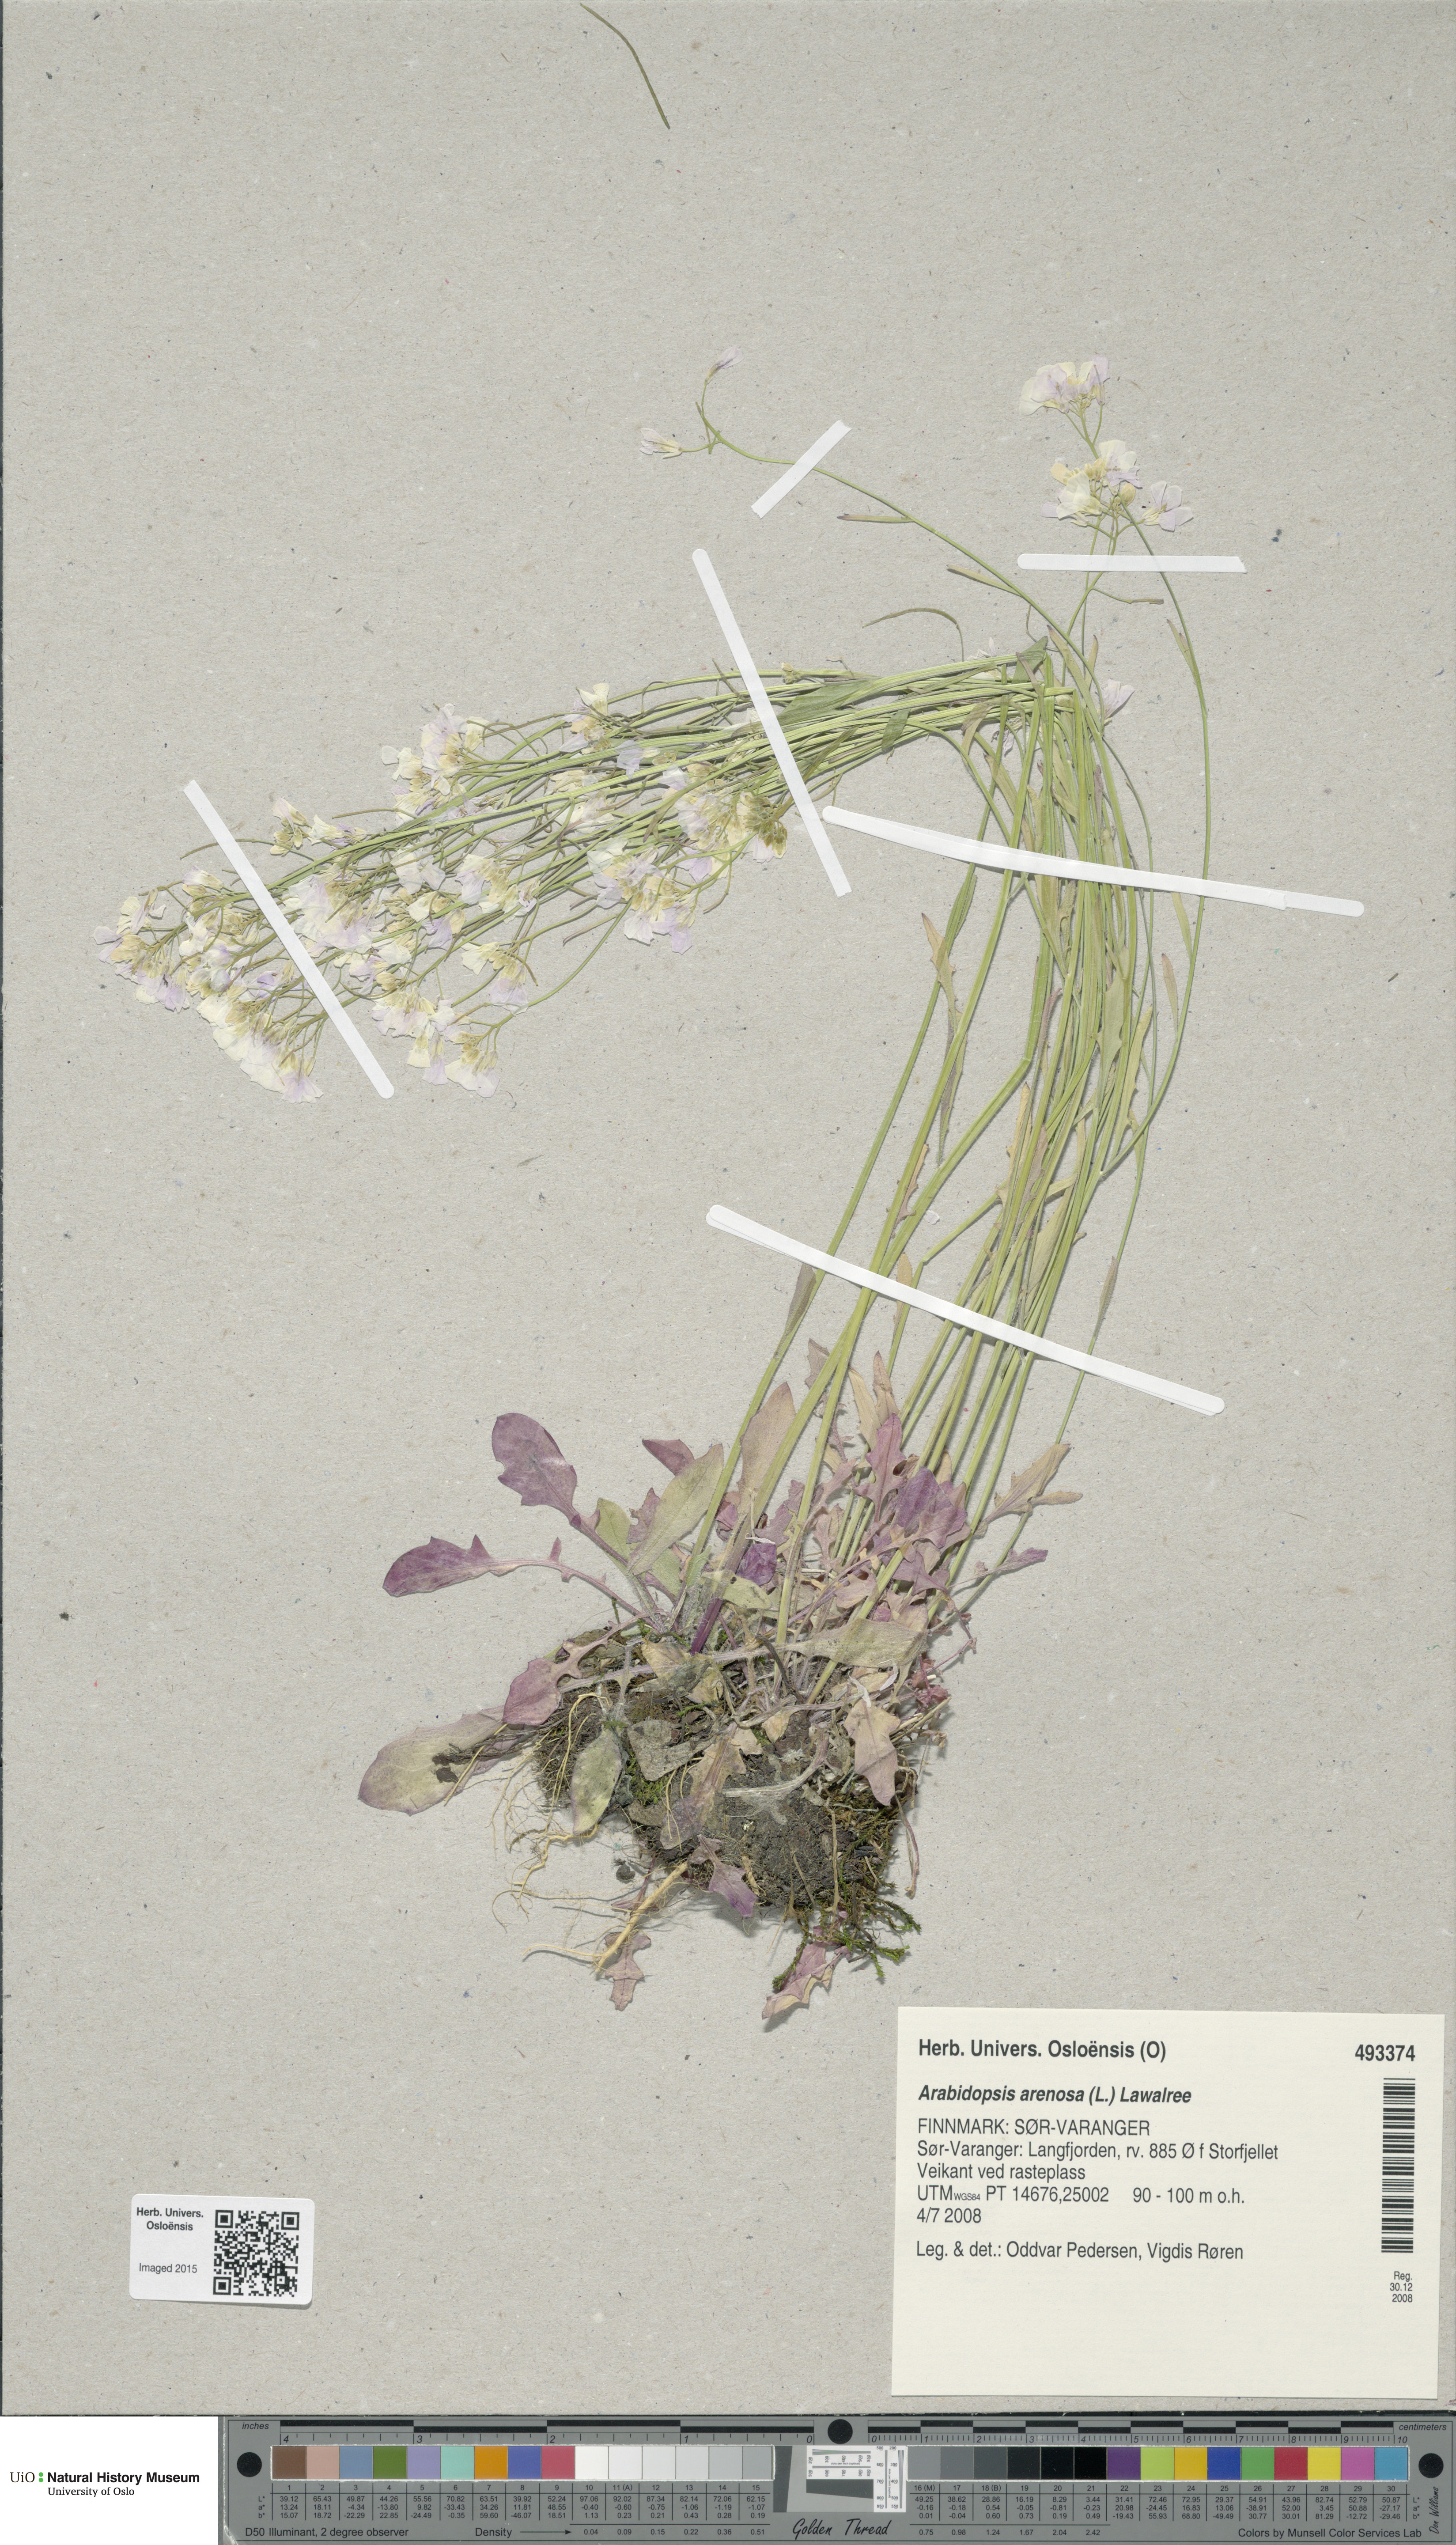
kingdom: Plantae
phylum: Tracheophyta
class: Magnoliopsida
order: Brassicales
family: Brassicaceae
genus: Arabidopsis
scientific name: Arabidopsis arenosa
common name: Sand rock-cress
